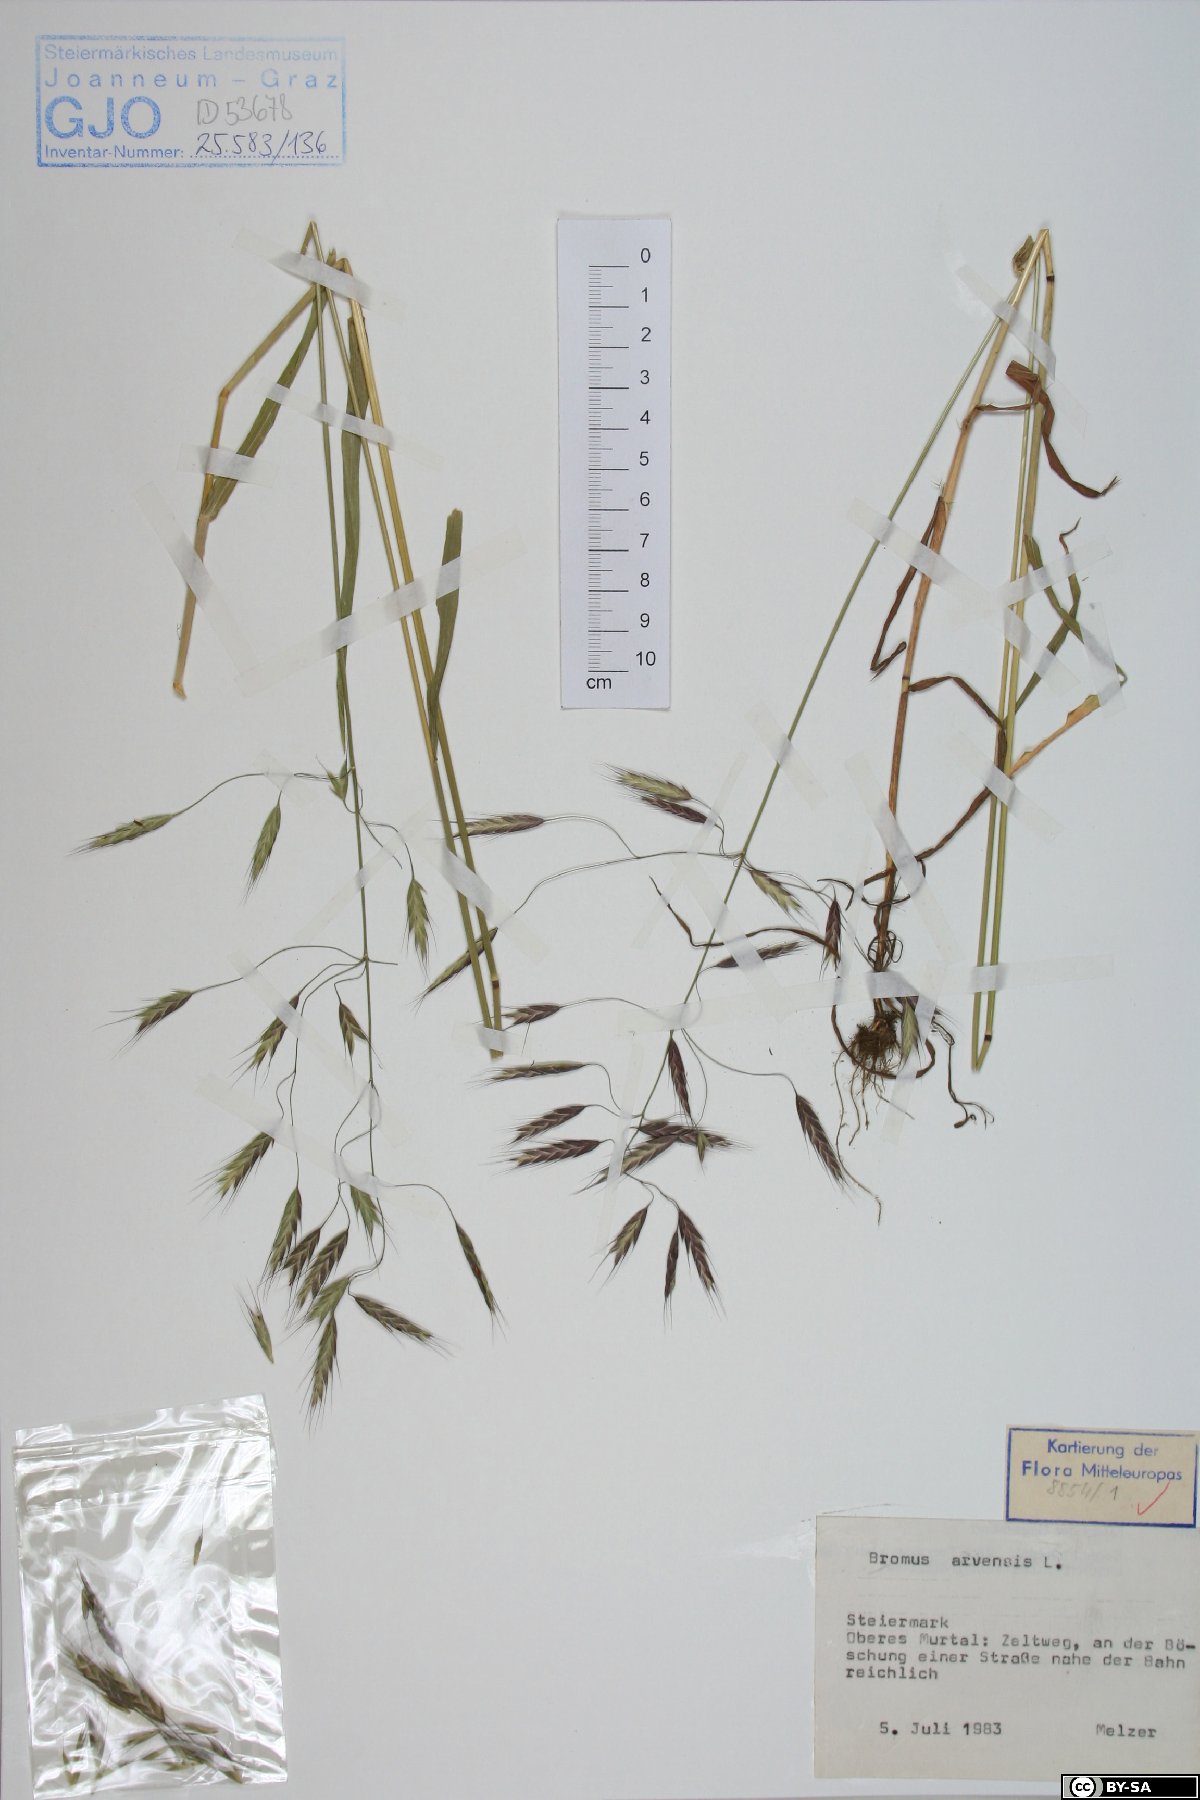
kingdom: Plantae
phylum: Tracheophyta
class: Liliopsida
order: Poales
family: Poaceae
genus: Bromus
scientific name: Bromus arvensis
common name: Field brome
